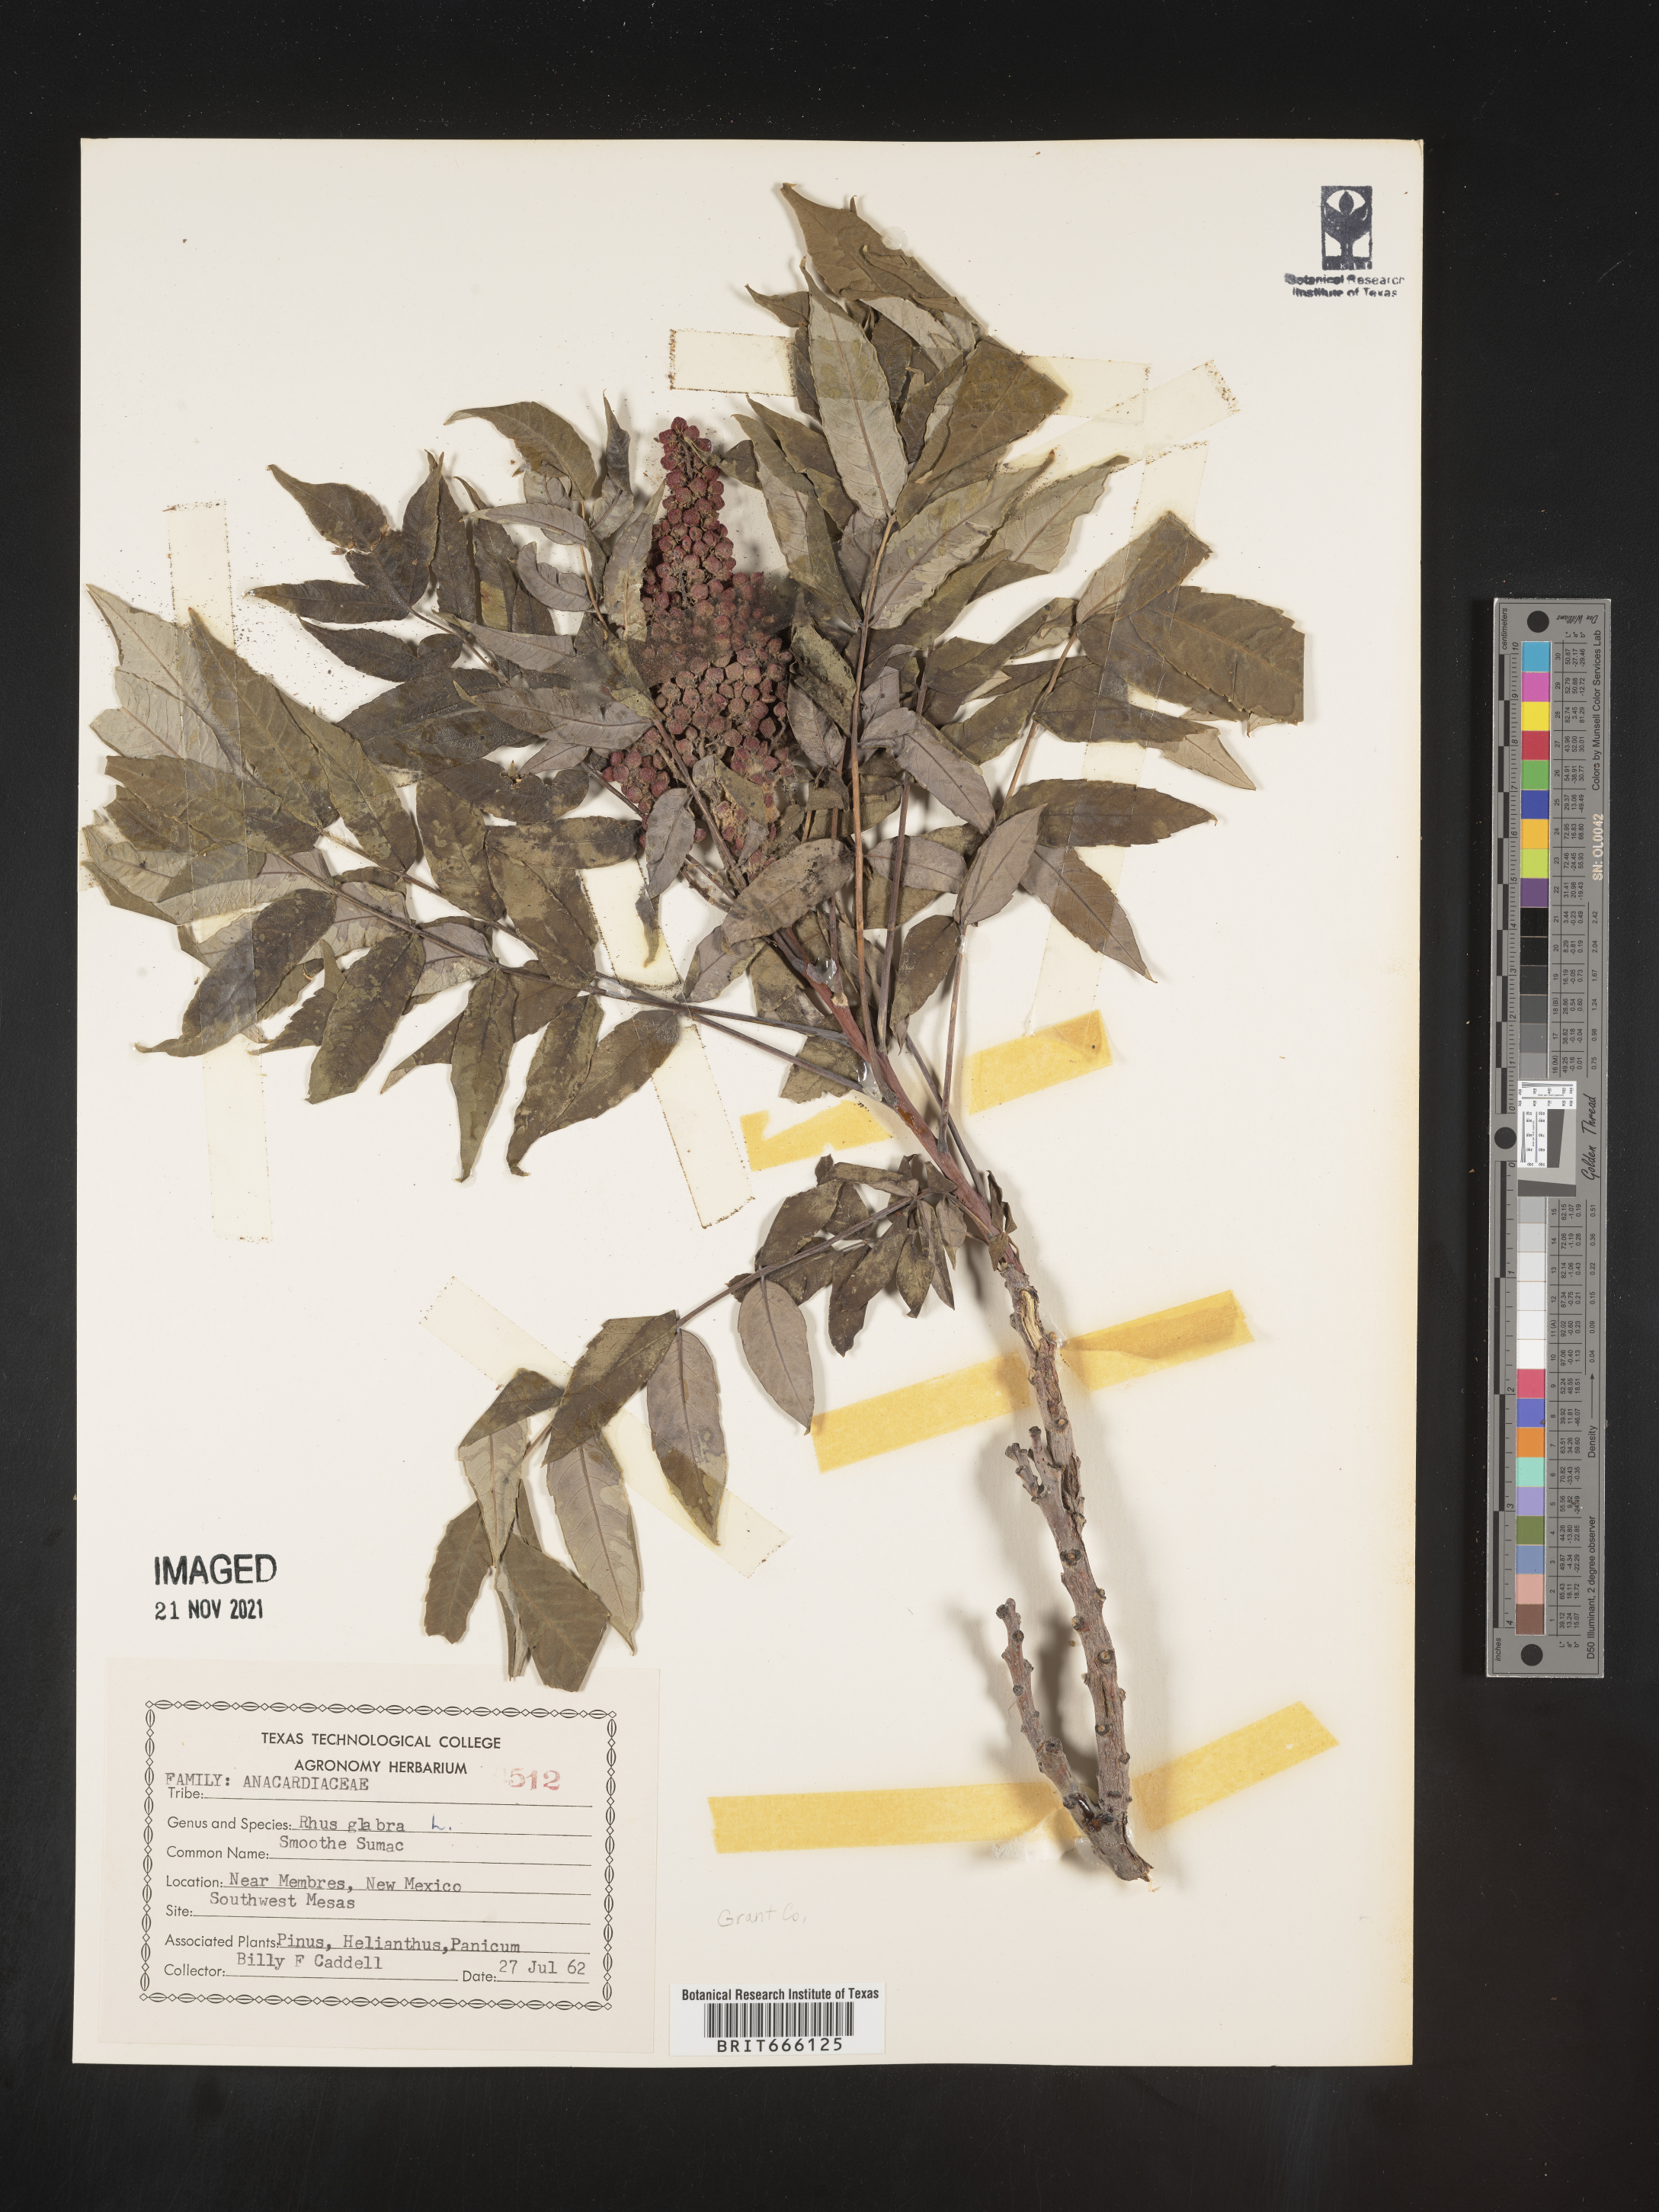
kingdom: Plantae
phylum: Tracheophyta
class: Magnoliopsida
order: Sapindales
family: Anacardiaceae
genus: Rhus
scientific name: Rhus glabra
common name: Scarlet sumac
